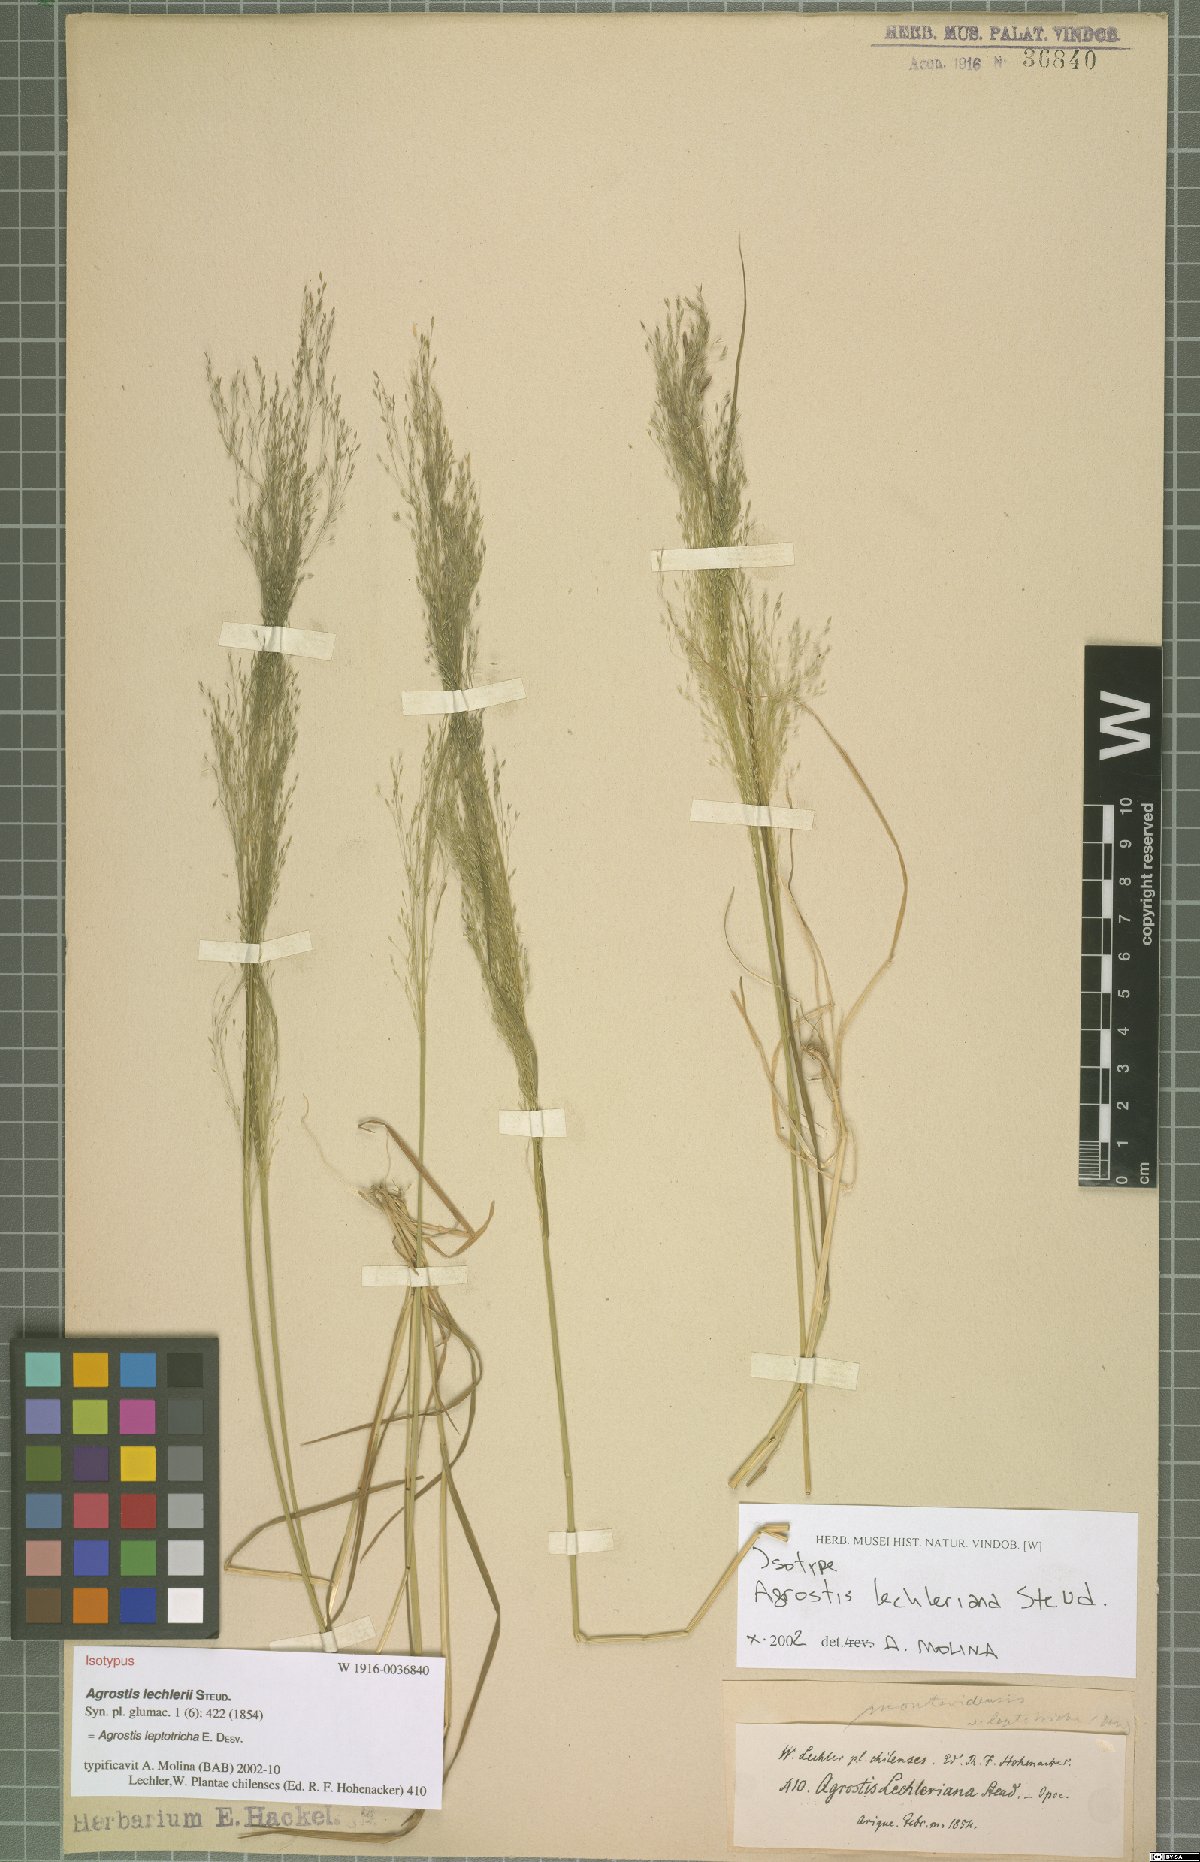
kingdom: Plantae
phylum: Tracheophyta
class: Liliopsida
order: Poales
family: Poaceae
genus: Agrostis
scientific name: Agrostis leptotricha
